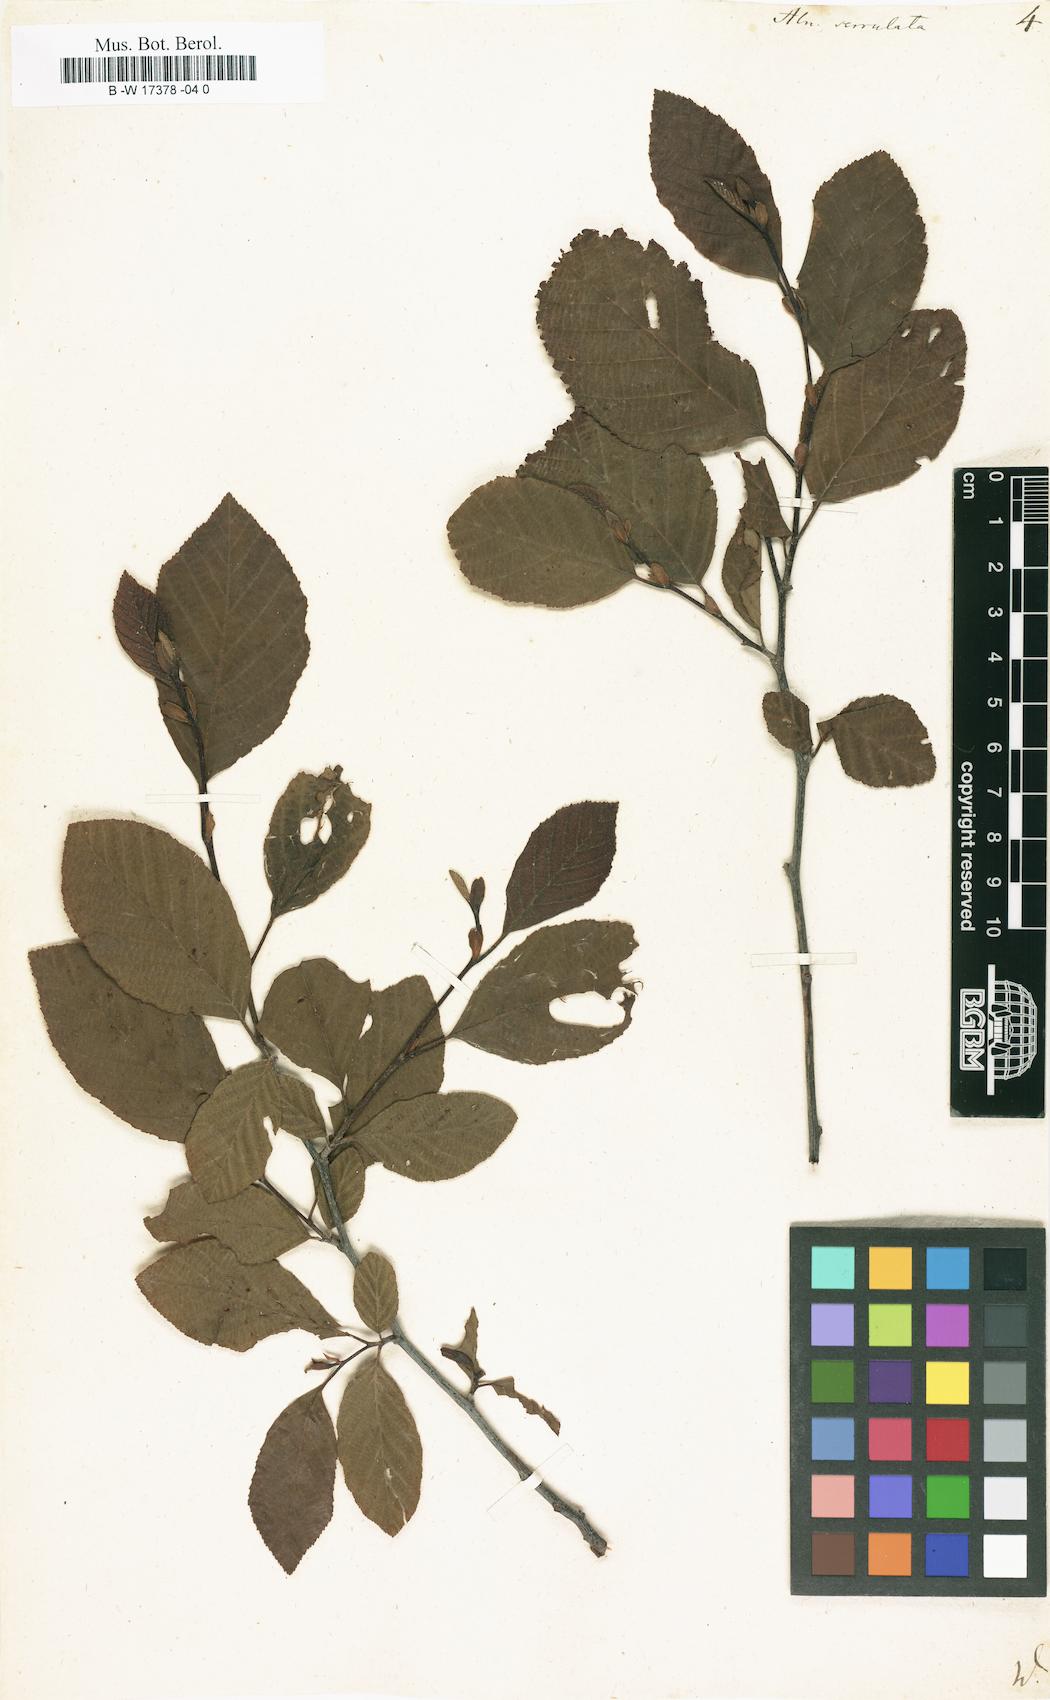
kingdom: Plantae
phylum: Tracheophyta
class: Magnoliopsida
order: Fagales
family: Betulaceae
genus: Alnus
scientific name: Alnus serrulata
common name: Hazel alder
